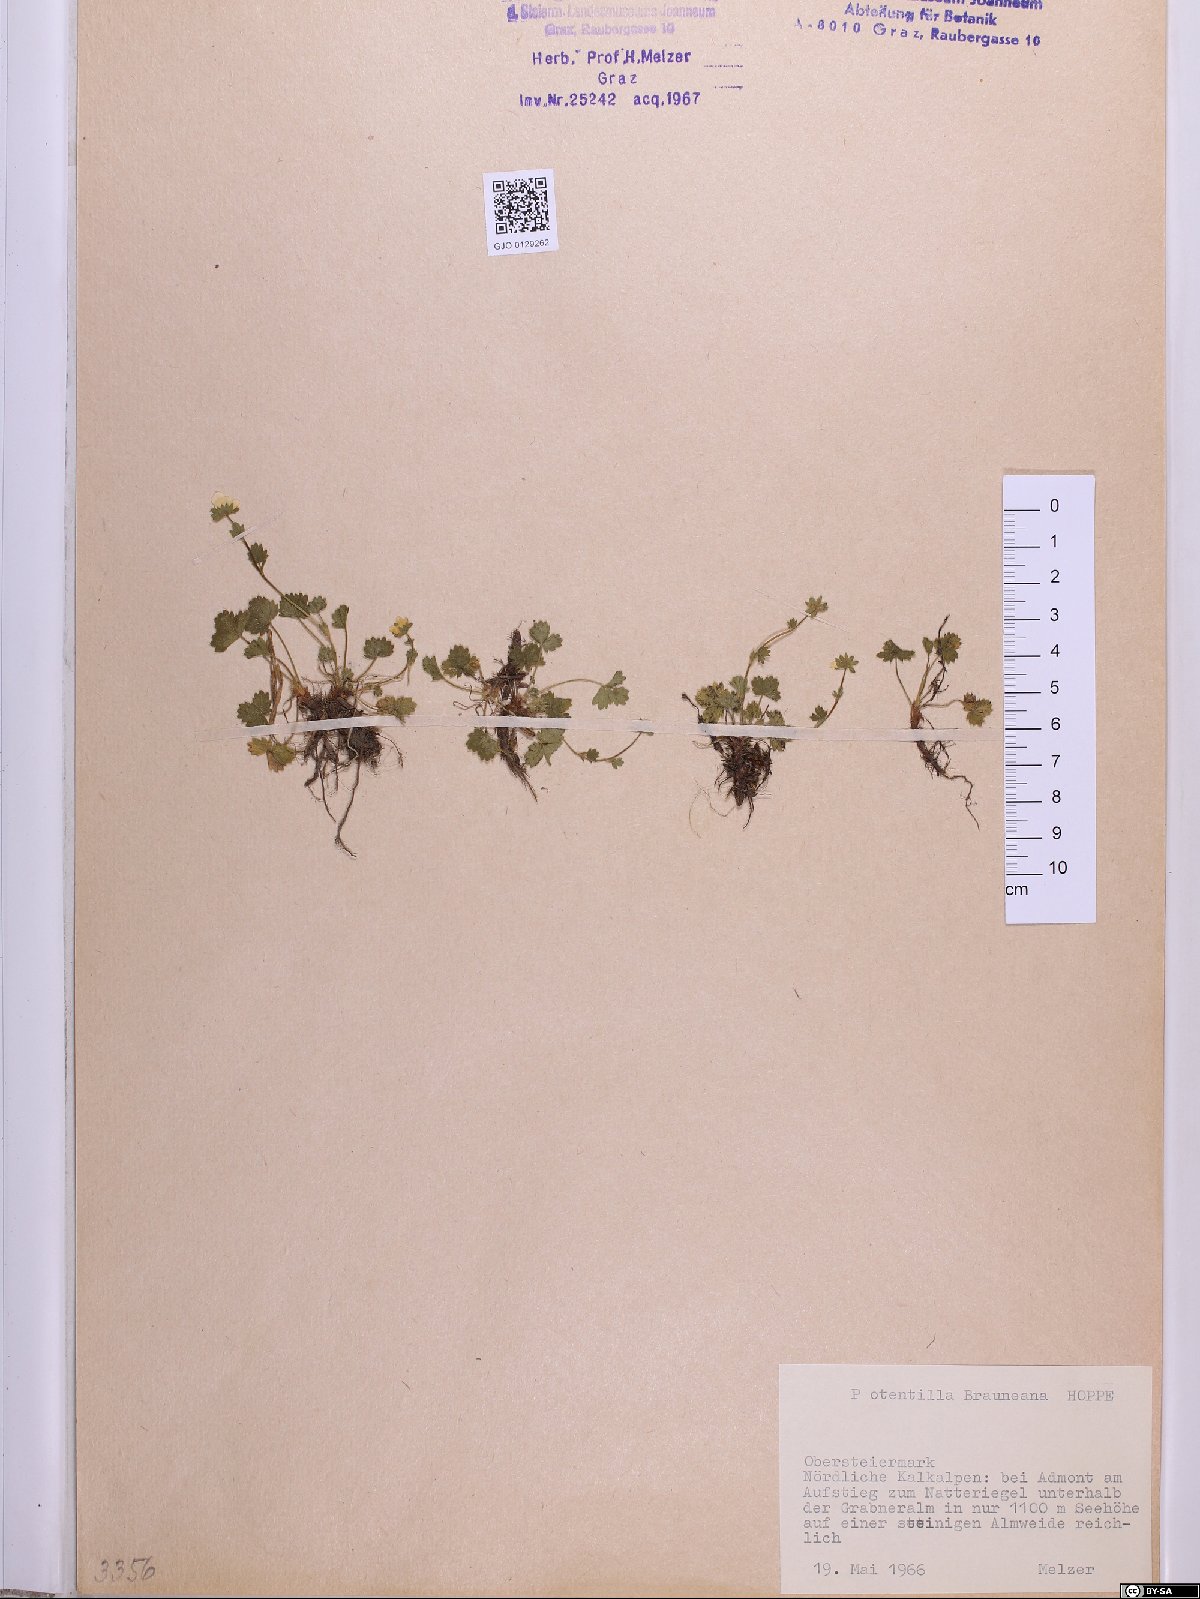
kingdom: Plantae
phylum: Tracheophyta
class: Magnoliopsida
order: Rosales
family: Rosaceae
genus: Potentilla
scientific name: Potentilla brauneana
